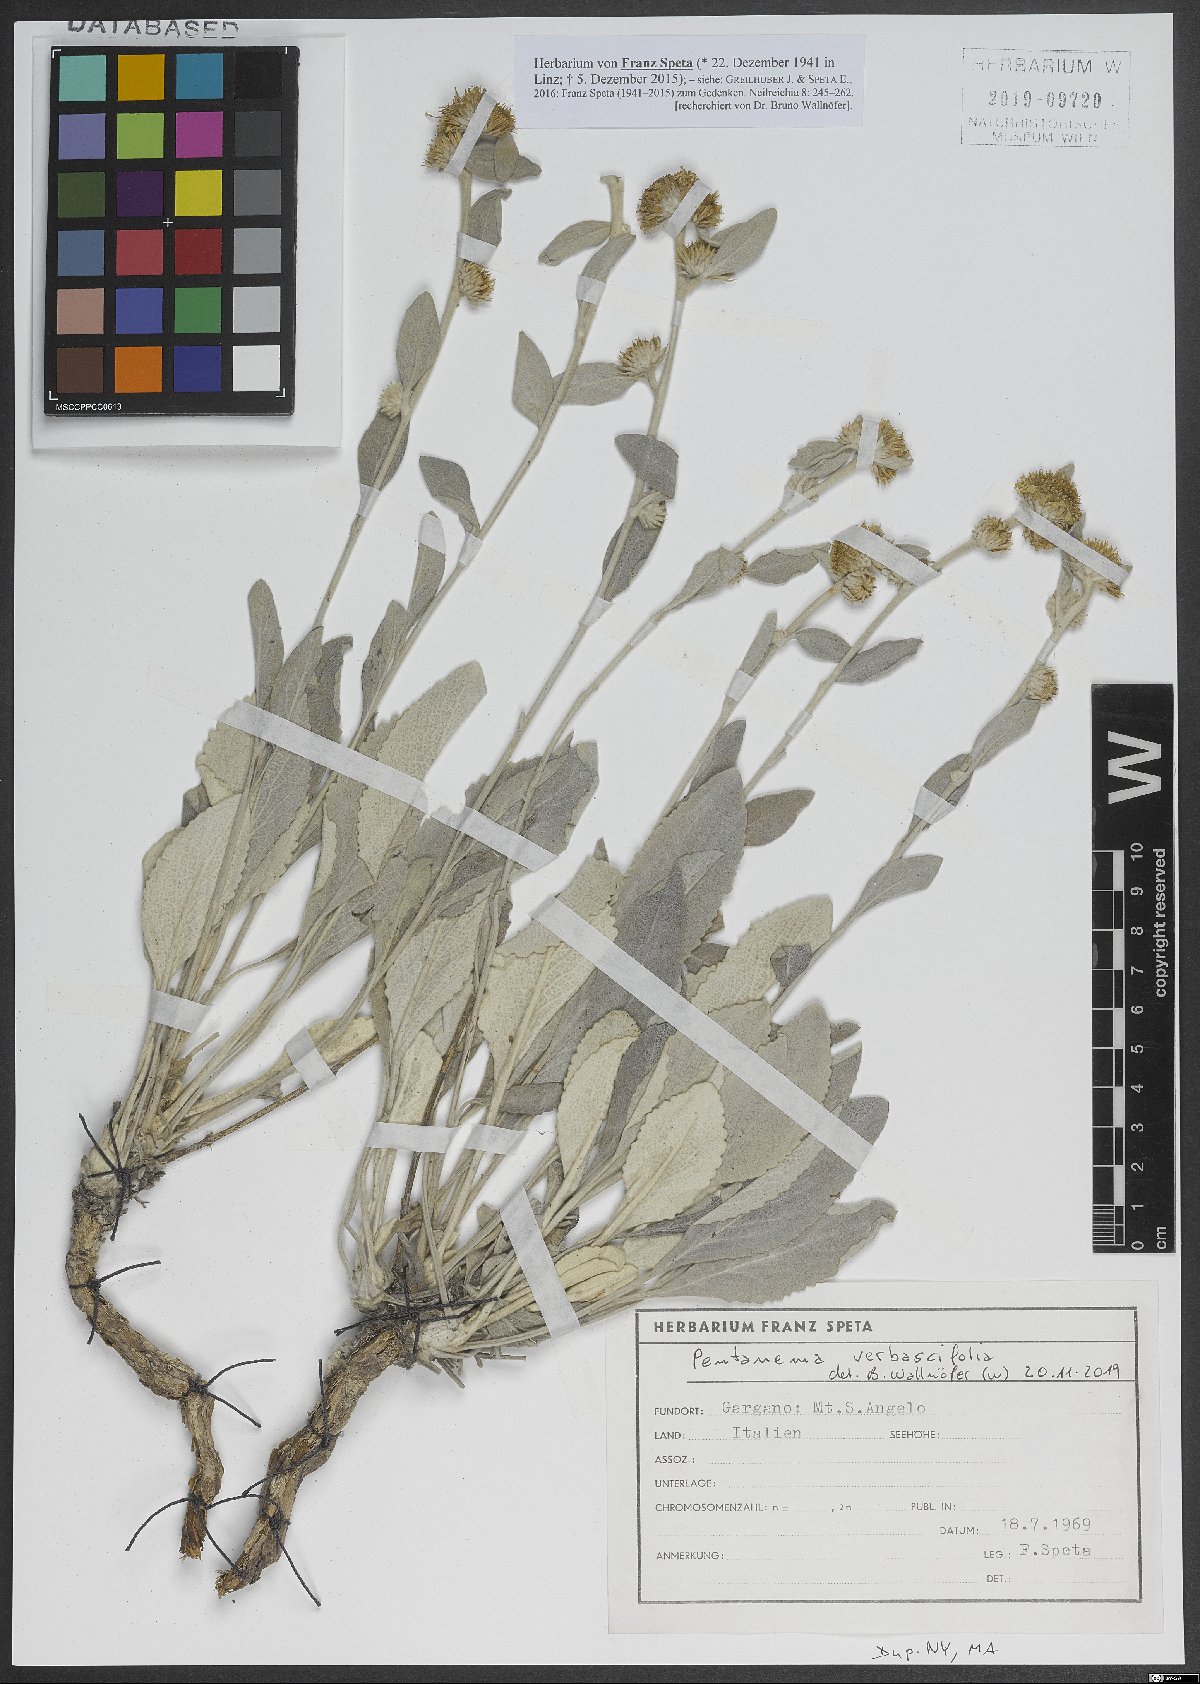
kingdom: Plantae
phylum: Tracheophyta
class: Magnoliopsida
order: Asterales
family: Asteraceae
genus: Pentanema
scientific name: Pentanema verbascifolium
